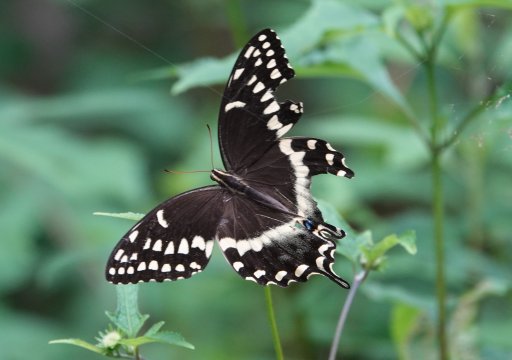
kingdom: Animalia
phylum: Arthropoda
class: Insecta
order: Lepidoptera
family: Papilionidae
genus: Pterourus
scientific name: Pterourus palamedes
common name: Palamedes Swallowtail
